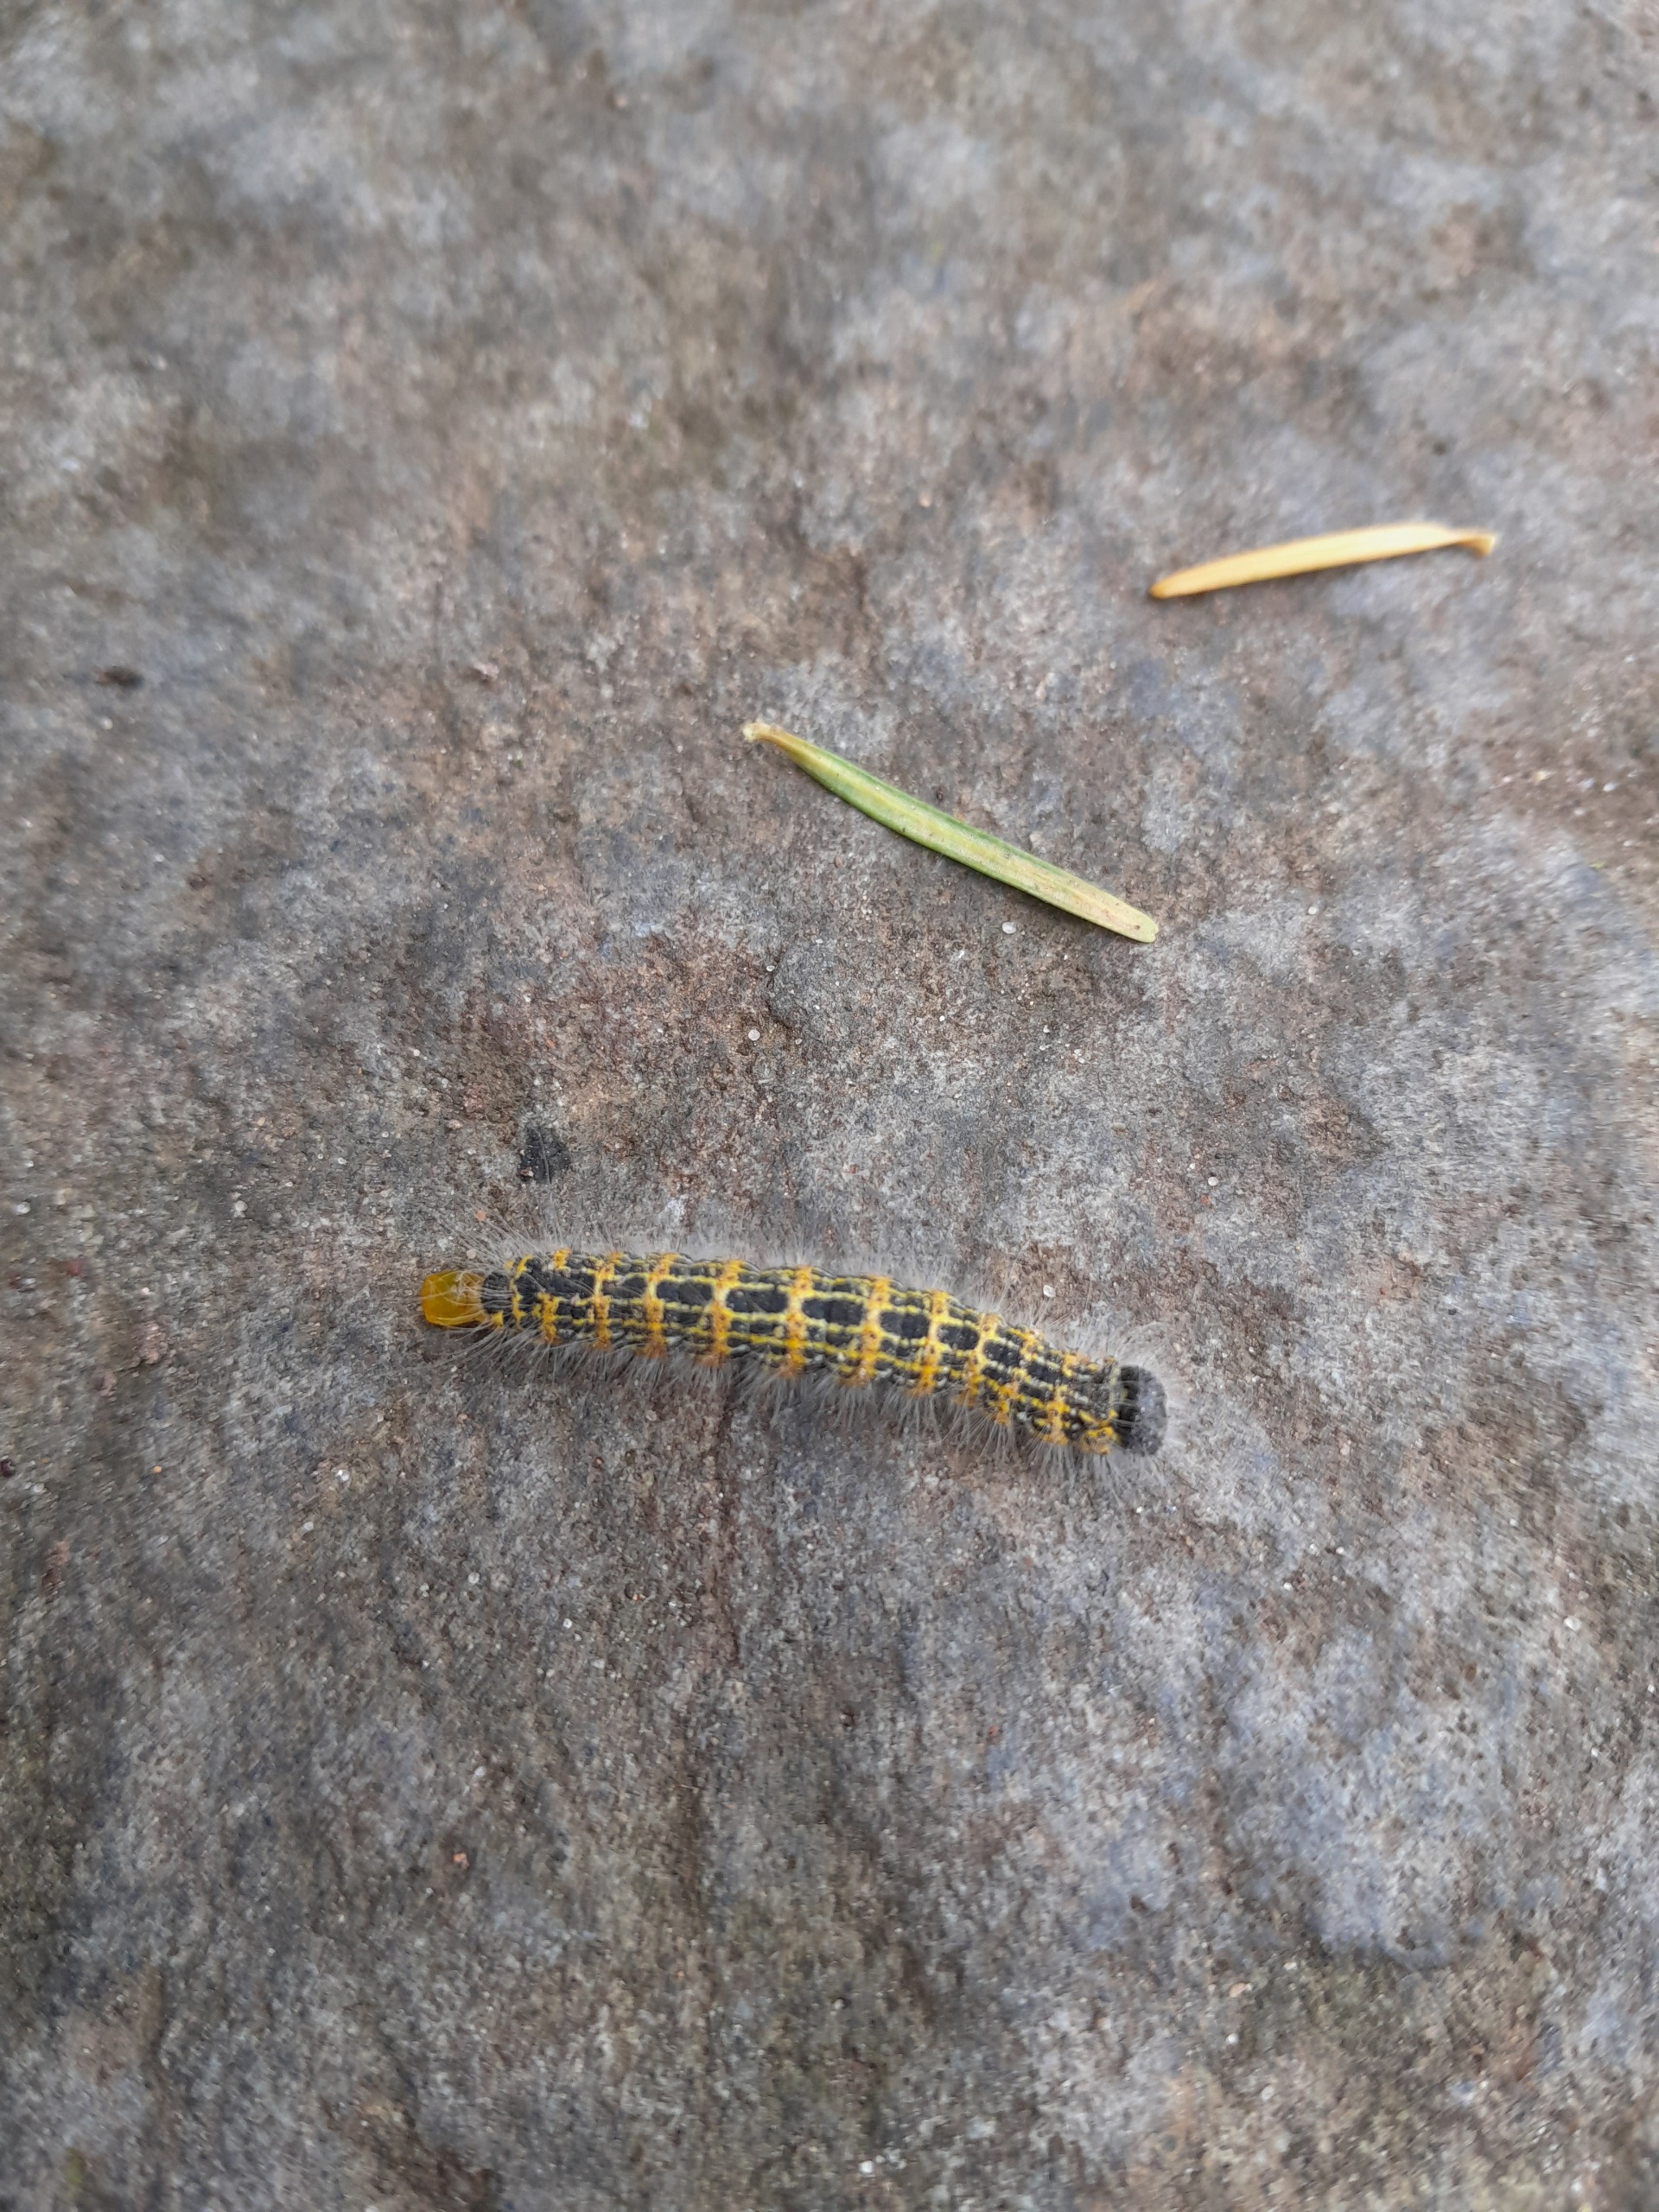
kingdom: Animalia
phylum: Arthropoda
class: Insecta
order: Lepidoptera
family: Notodontidae
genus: Phalera
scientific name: Phalera bucephala
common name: Måneplet
